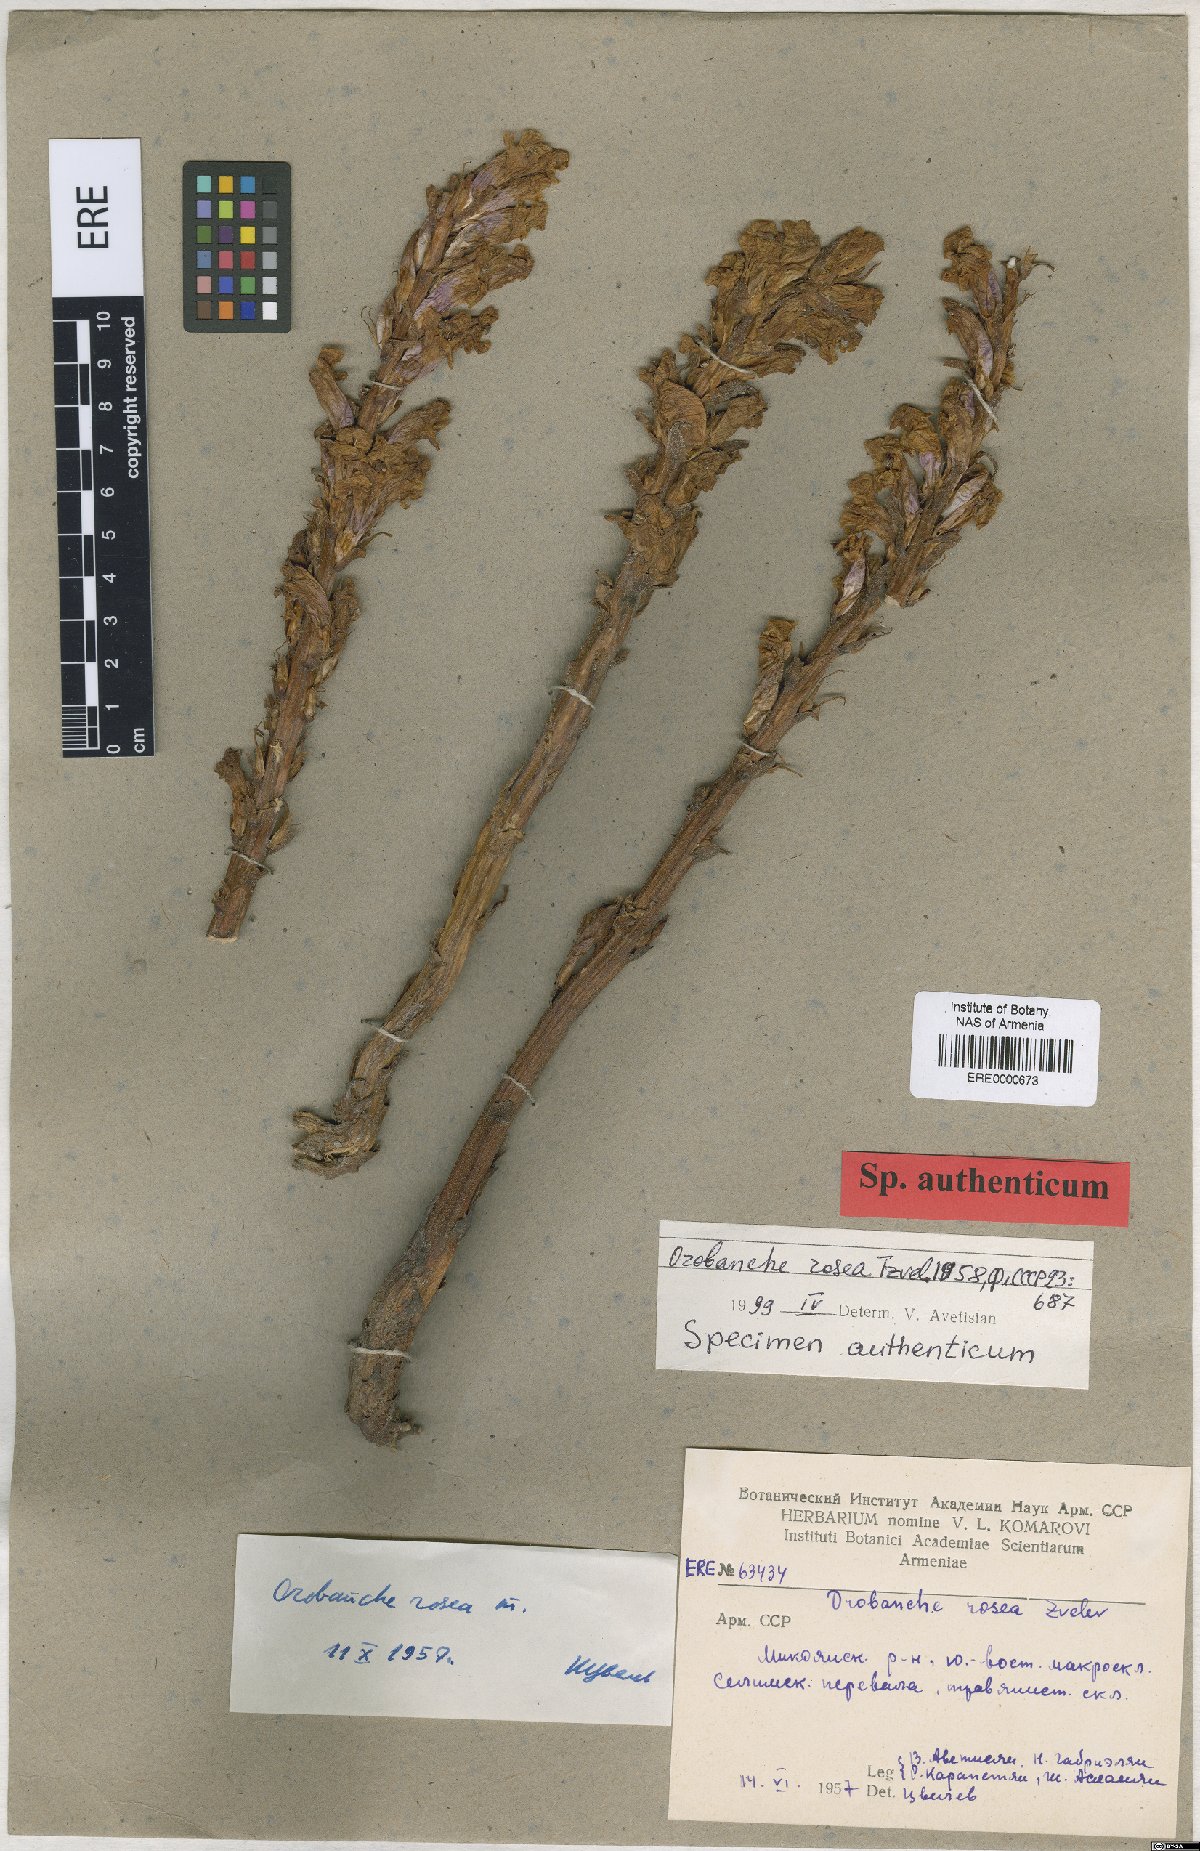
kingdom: Plantae
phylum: Tracheophyta
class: Magnoliopsida
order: Lamiales
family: Orobanchaceae
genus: Orobanche
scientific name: Orobanche elatior
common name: Knapweed broomrape
